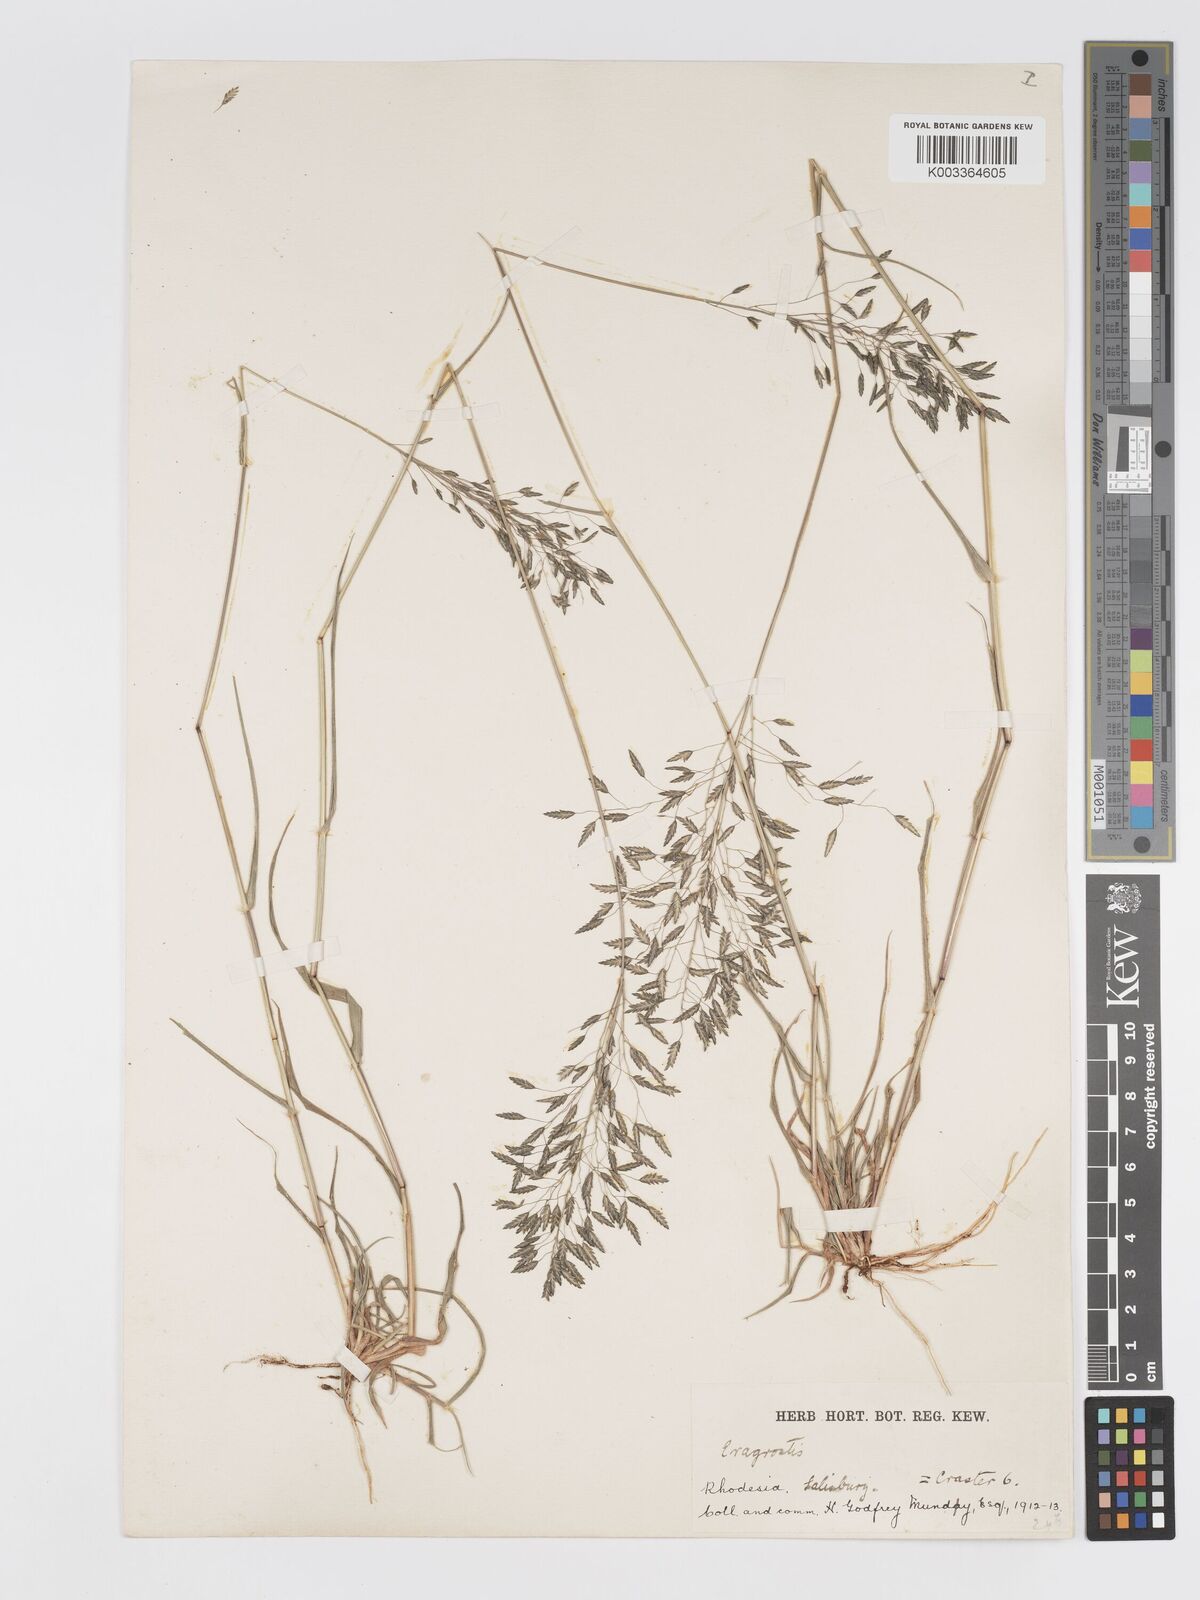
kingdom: Plantae
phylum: Tracheophyta
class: Liliopsida
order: Poales
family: Poaceae
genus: Eragrostis
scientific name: Eragrostis patentipilosa
